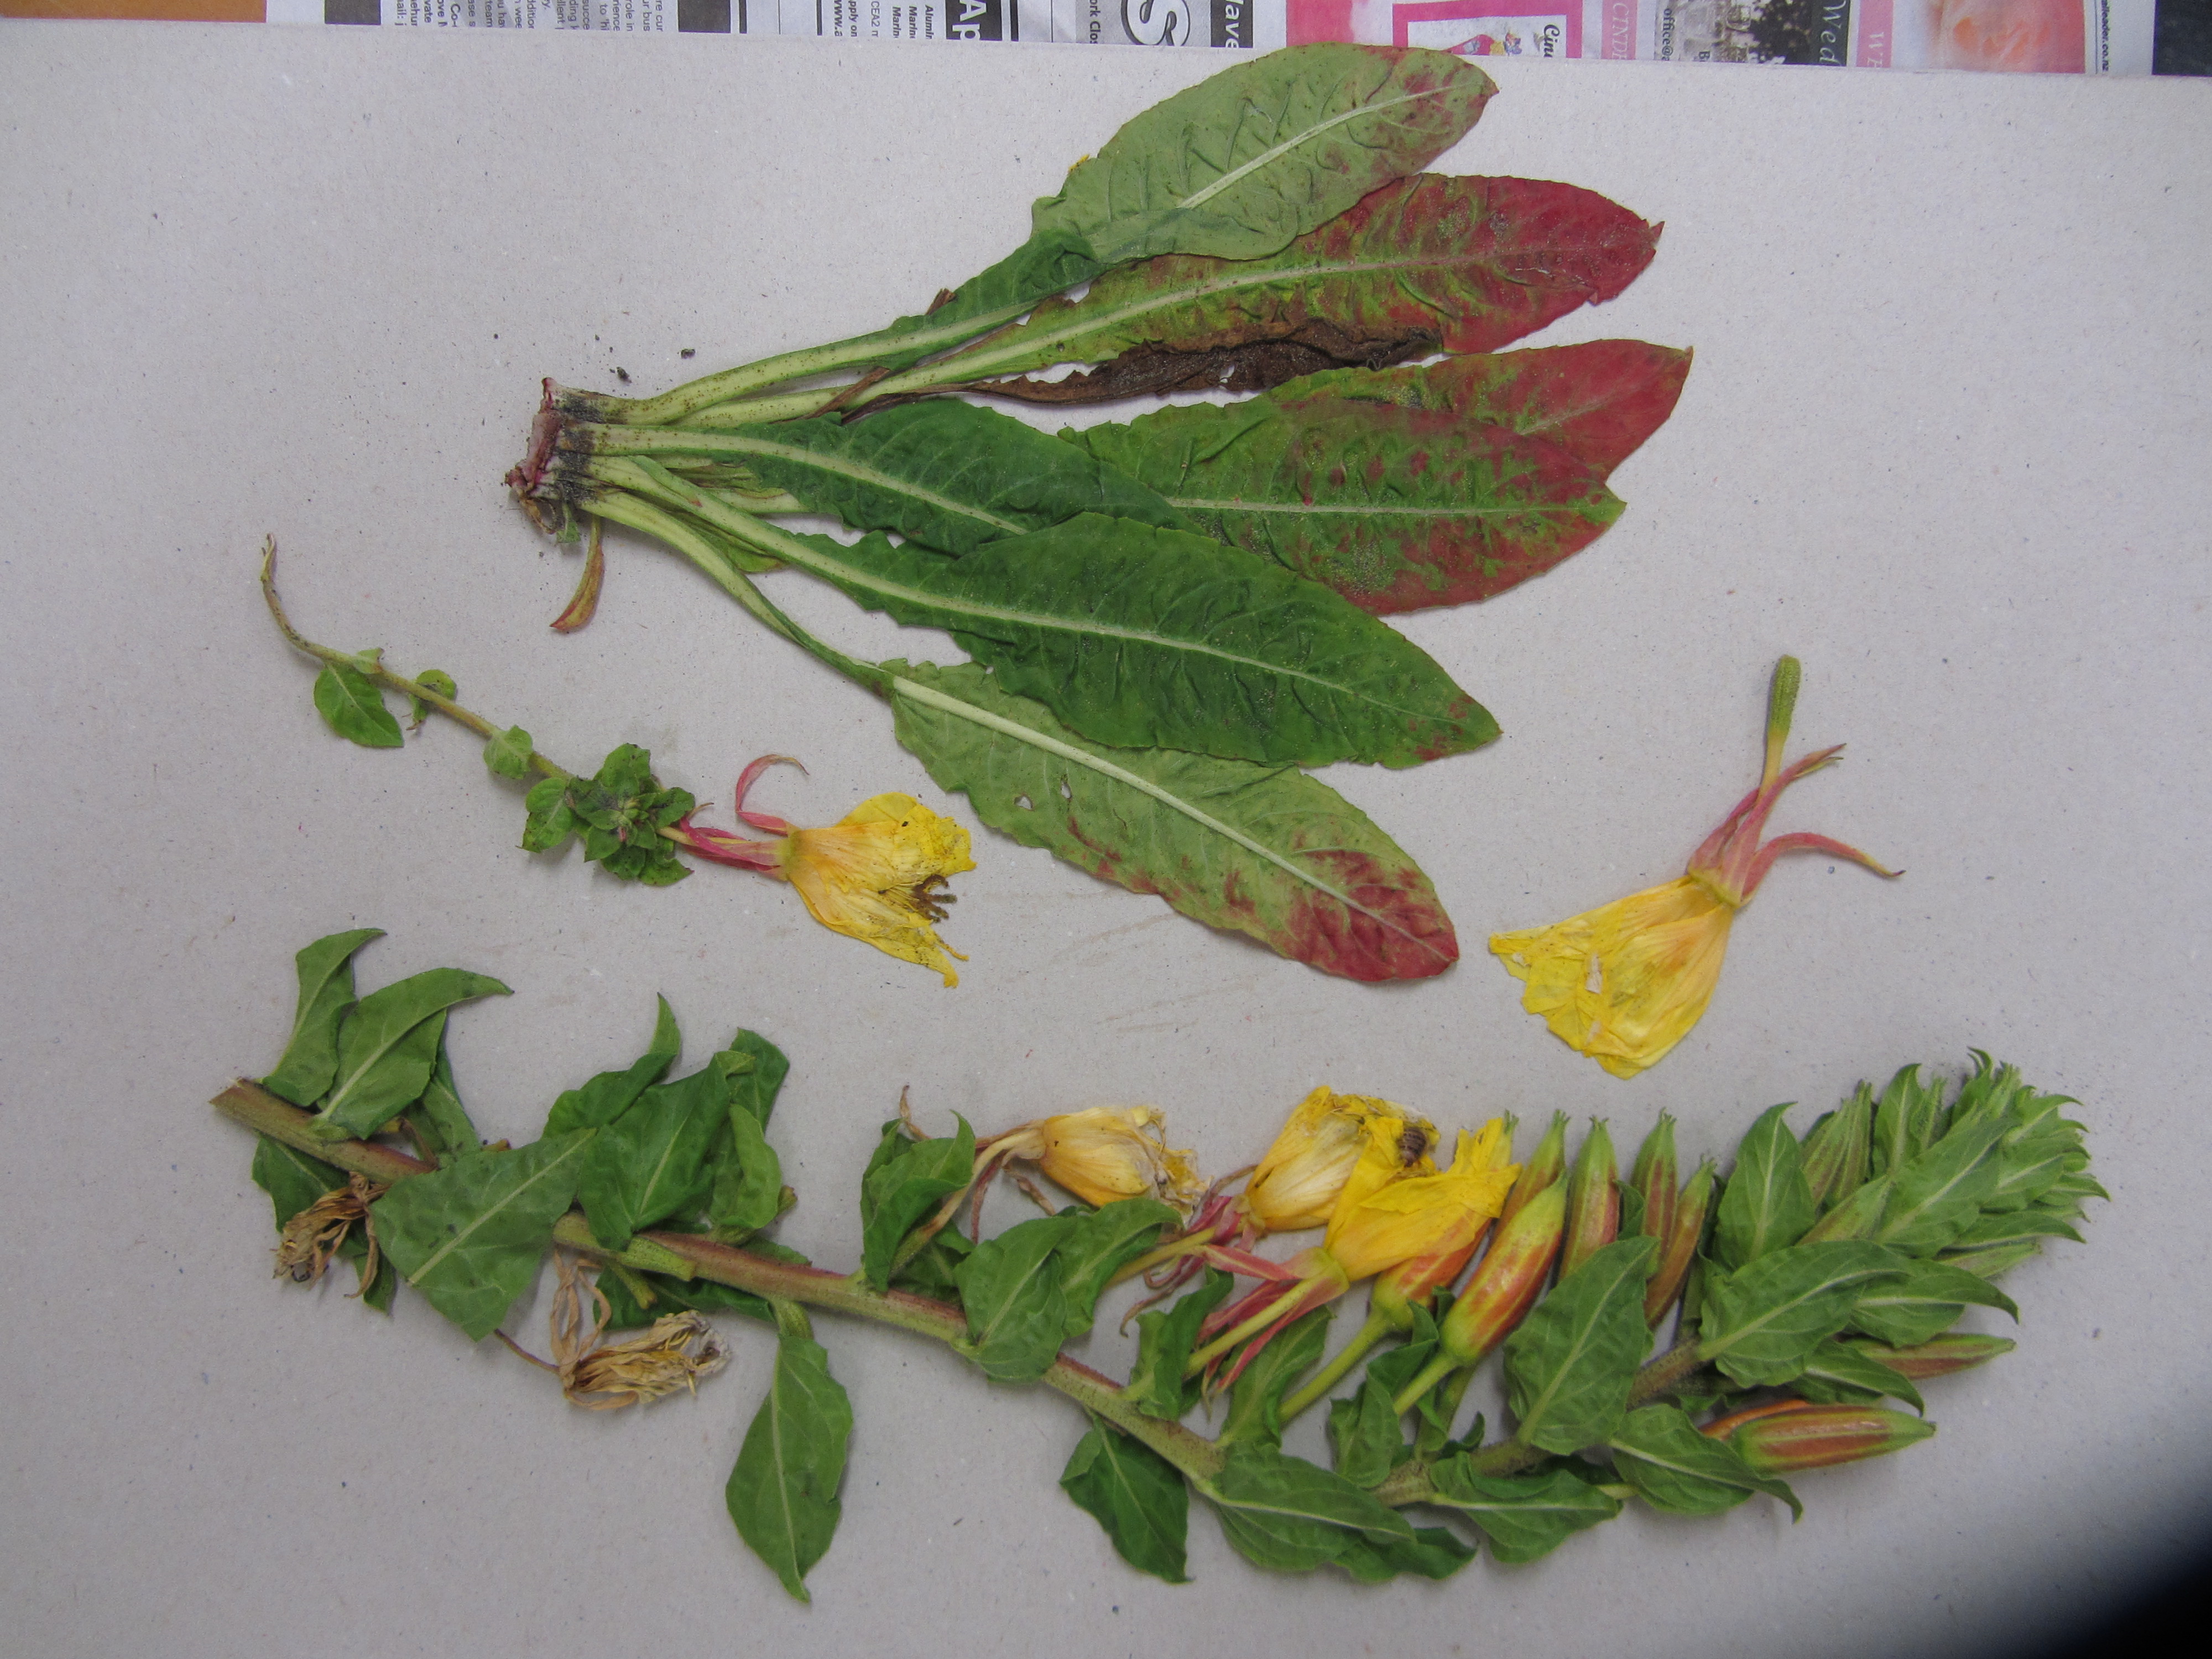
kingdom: Plantae
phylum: Tracheophyta
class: Magnoliopsida
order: Myrtales
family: Onagraceae
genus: Oenothera
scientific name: Oenothera glazioviana
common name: Large-flowered evening-primrose
